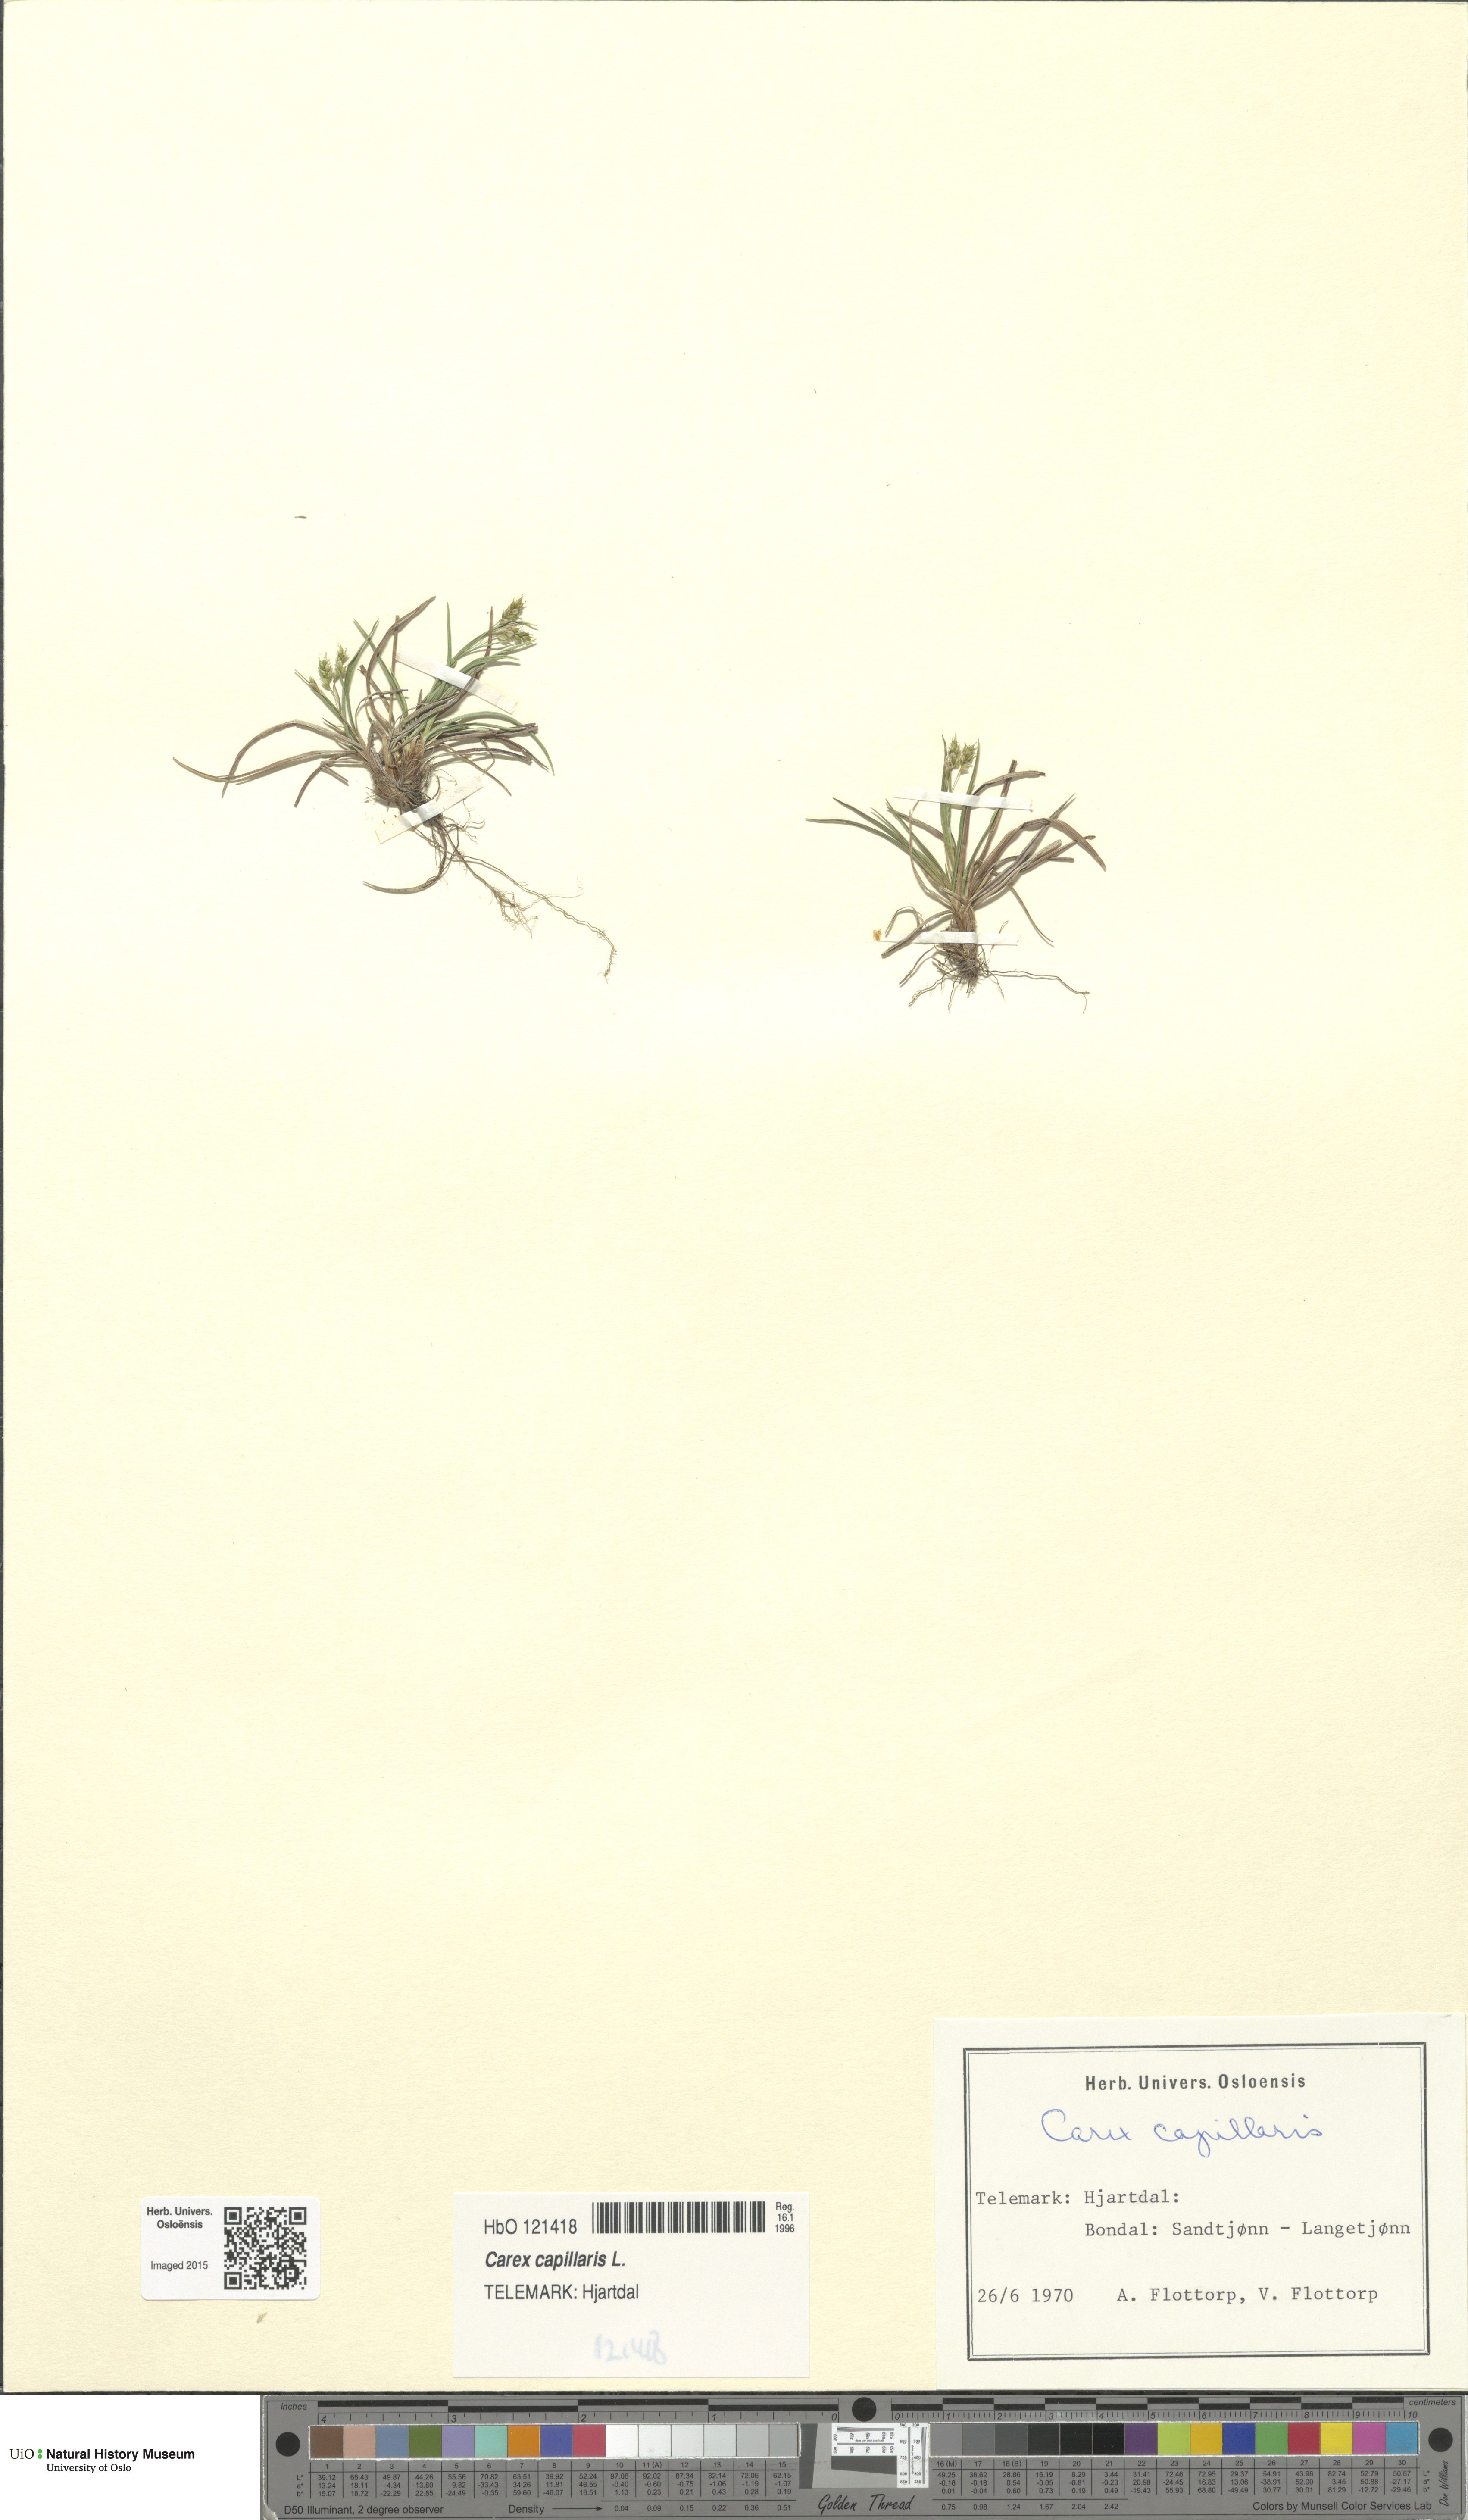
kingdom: Plantae
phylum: Tracheophyta
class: Liliopsida
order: Poales
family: Cyperaceae
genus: Carex
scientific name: Carex capillaris
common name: Hair sedge
